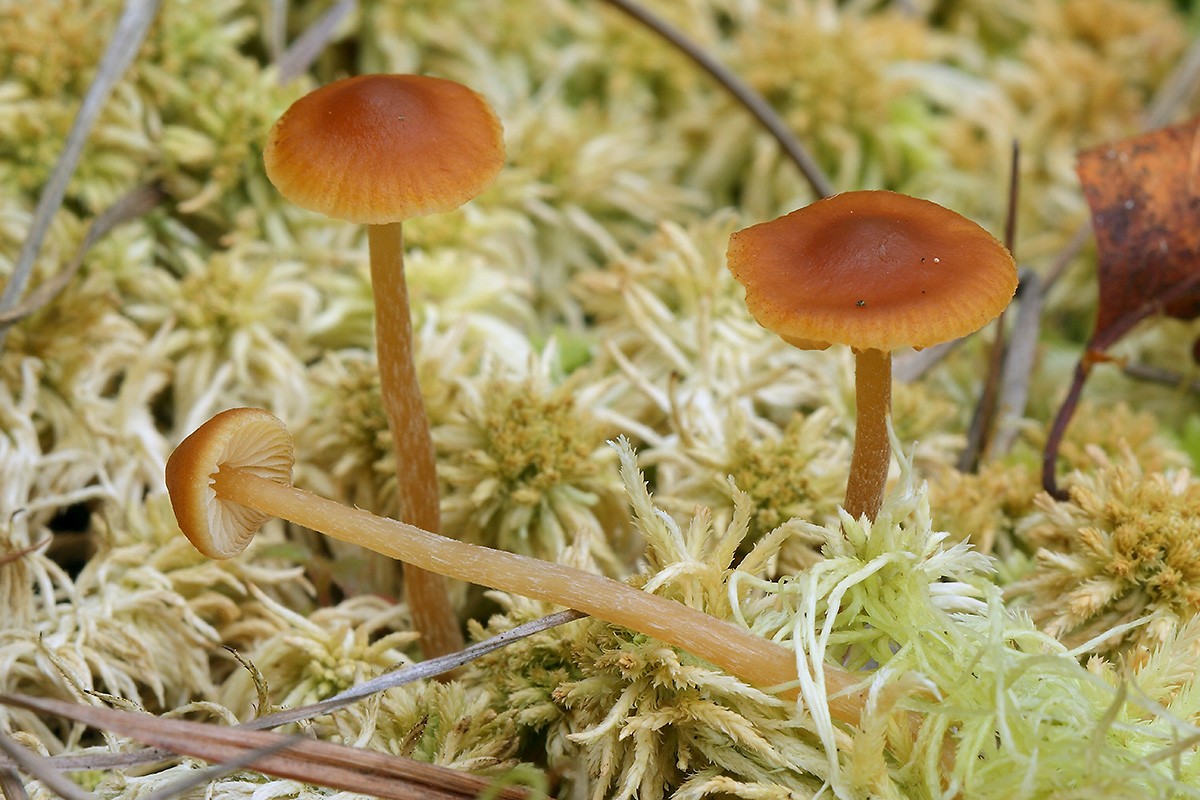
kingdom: Fungi
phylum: Basidiomycota
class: Agaricomycetes
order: Agaricales
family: Hymenogastraceae
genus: Galerina
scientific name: Galerina hybrida
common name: hængesæk-hjelmhat
